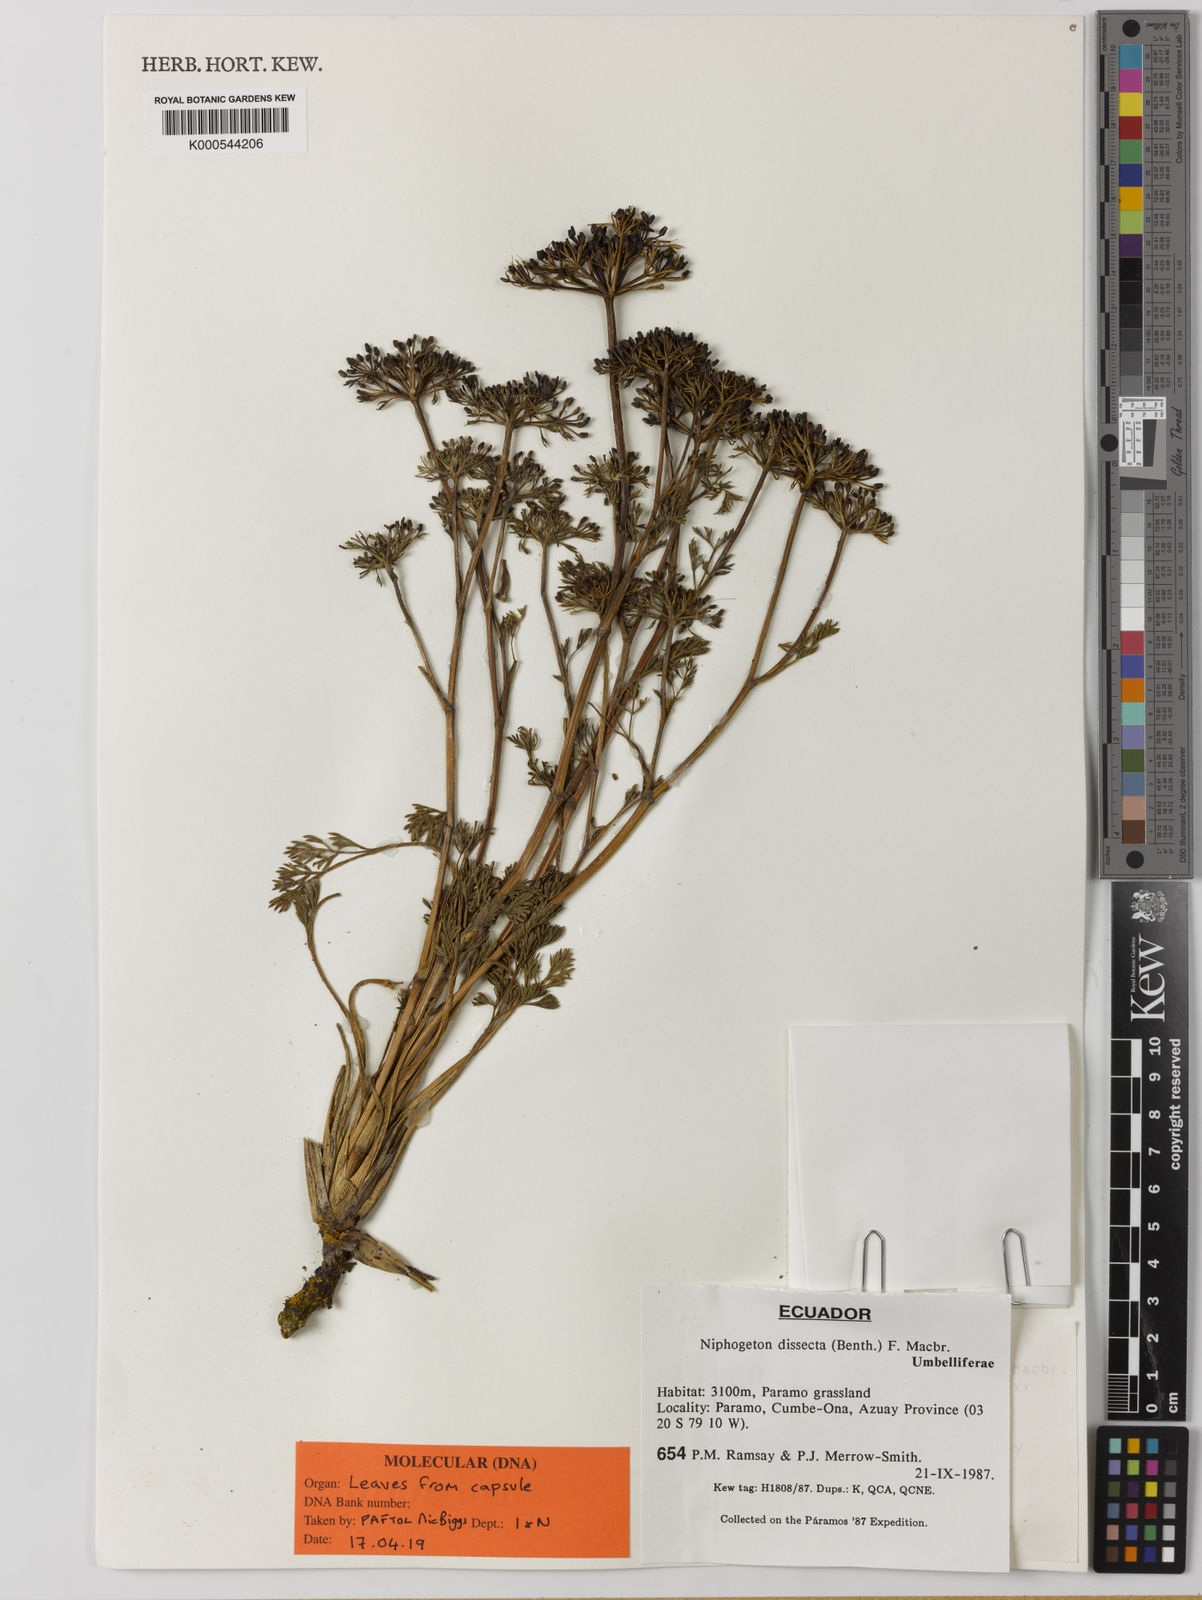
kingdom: Plantae
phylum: Tracheophyta
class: Magnoliopsida
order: Apiales
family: Apiaceae
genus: Niphogeton
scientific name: Niphogeton dissecta
